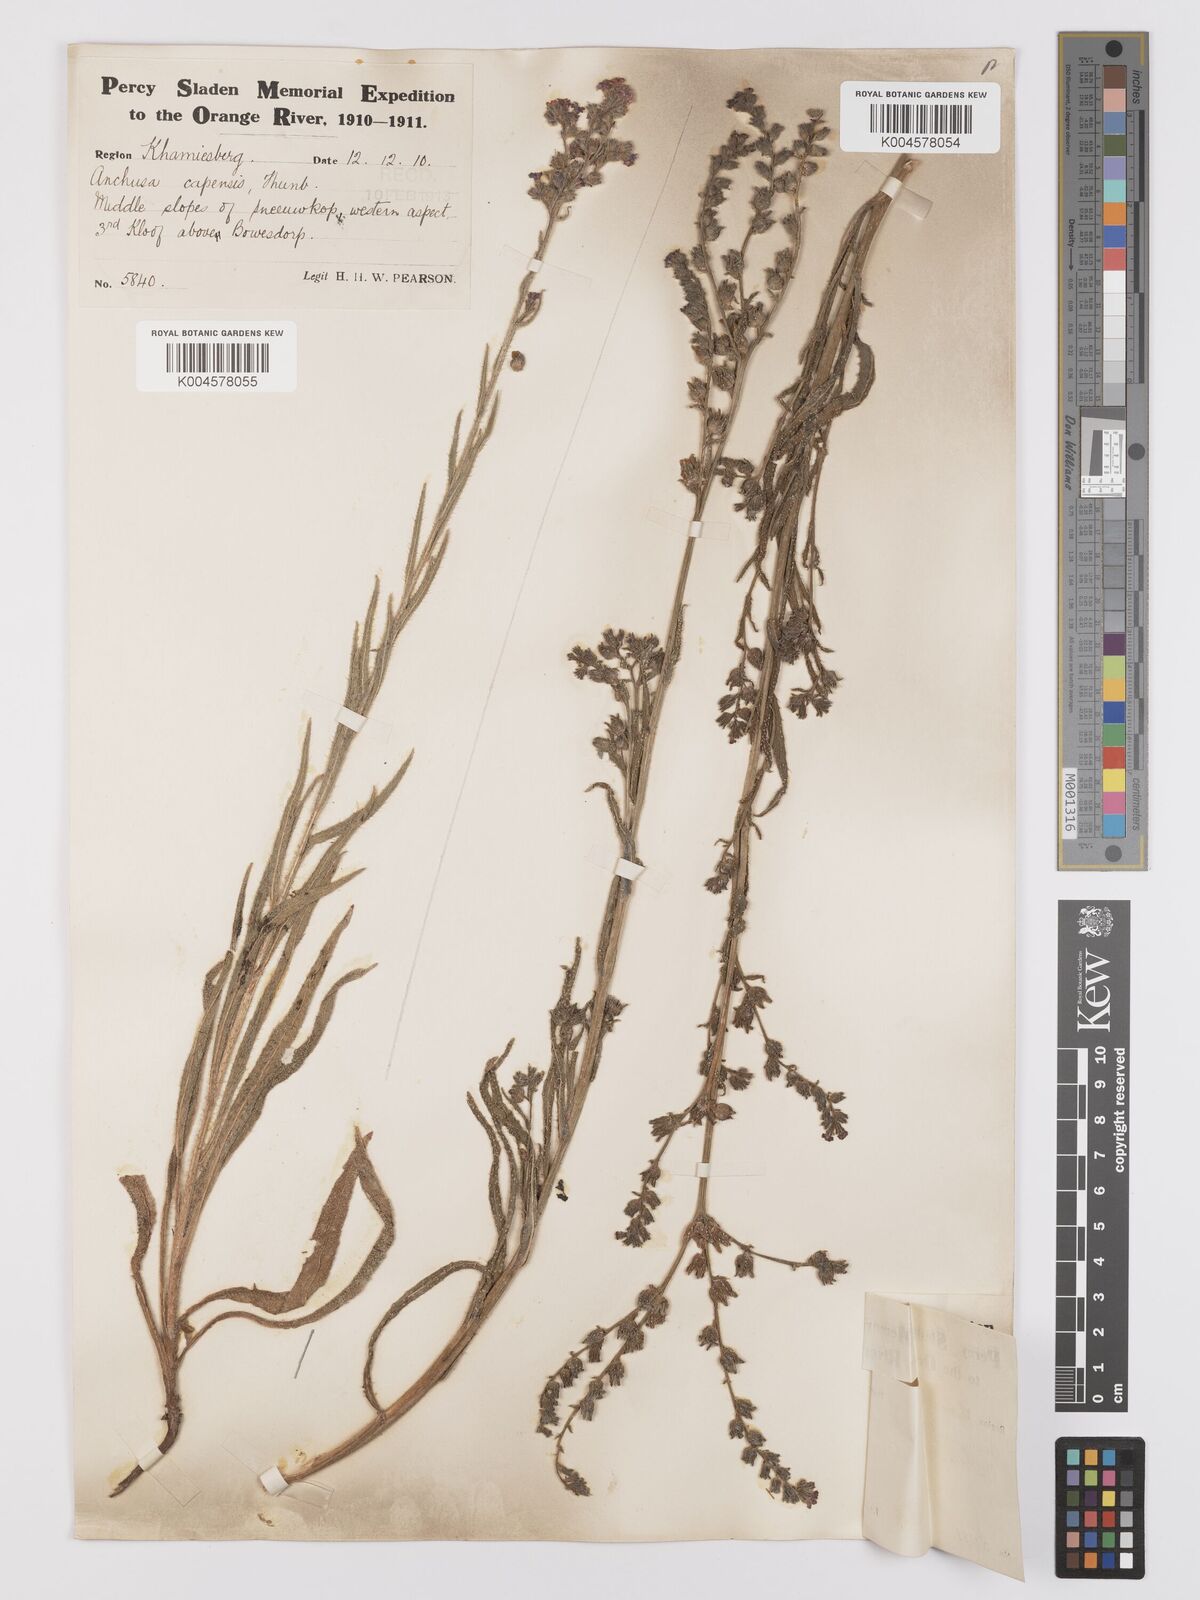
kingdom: Plantae
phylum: Tracheophyta
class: Magnoliopsida
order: Boraginales
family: Boraginaceae
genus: Anchusa
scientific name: Anchusa capensis
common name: Cape bugloss
